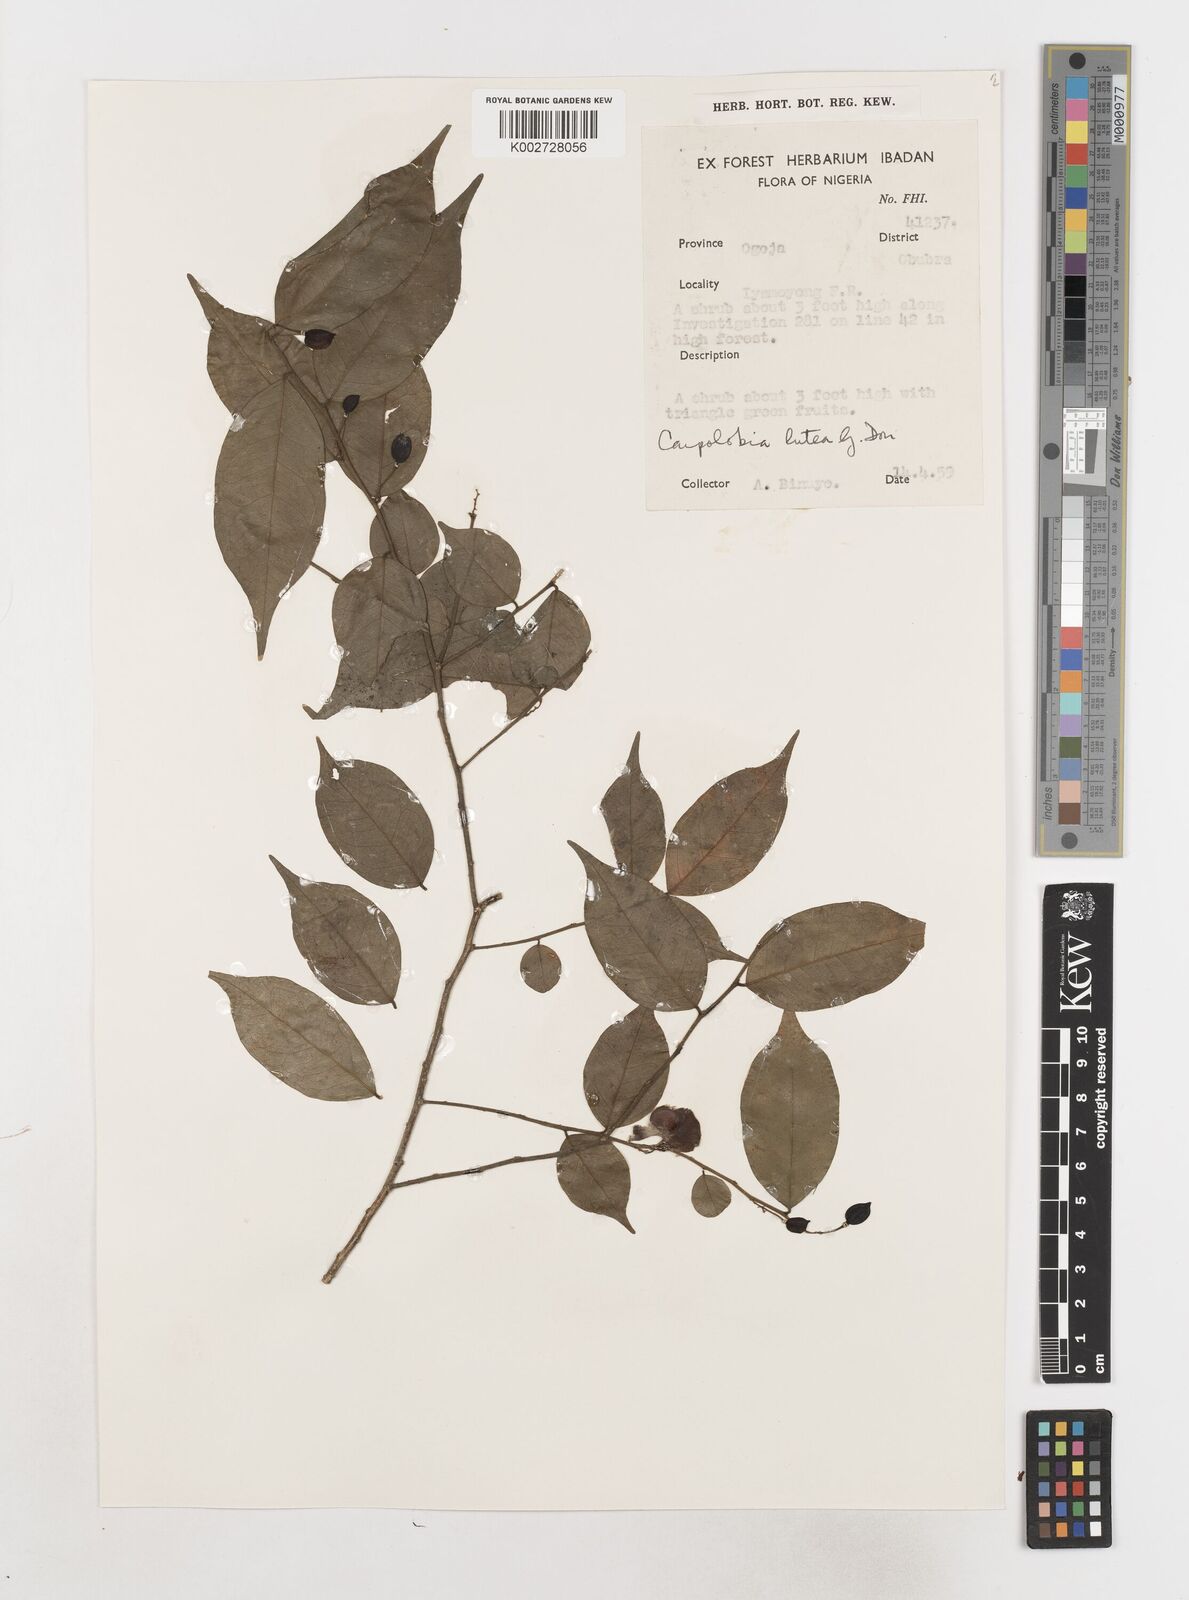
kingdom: Plantae
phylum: Tracheophyta
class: Magnoliopsida
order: Fabales
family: Polygalaceae
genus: Carpolobia
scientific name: Carpolobia lutea
